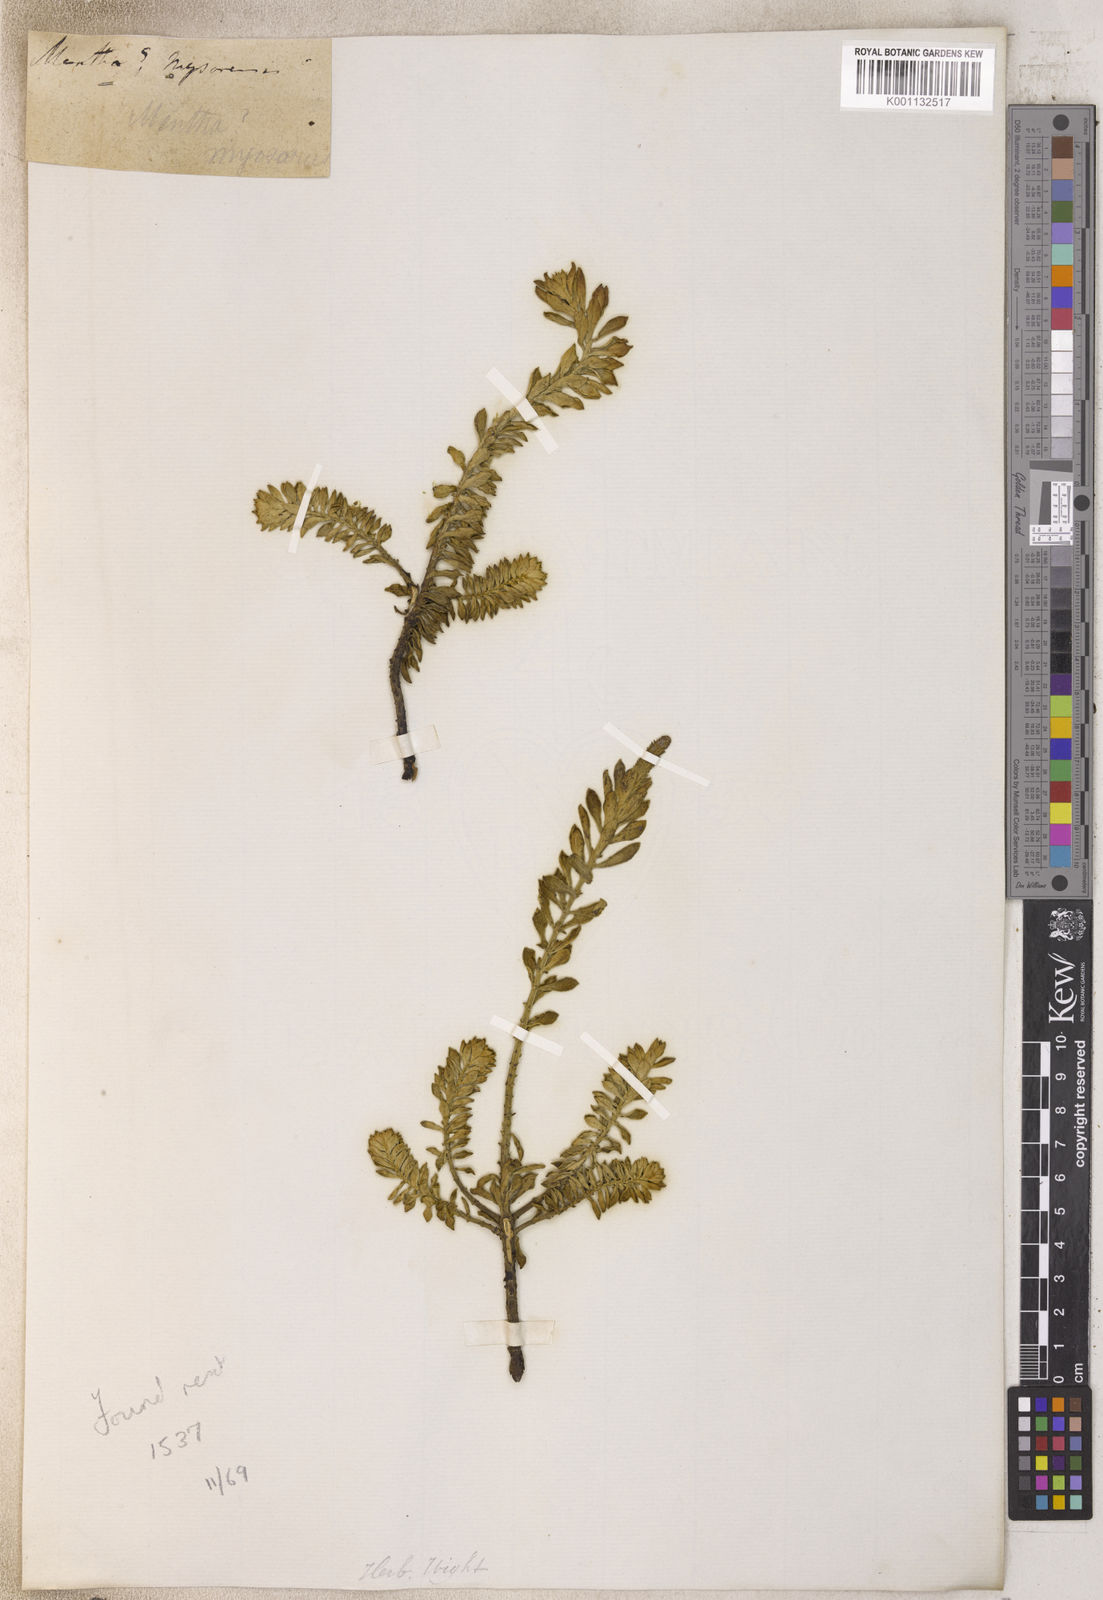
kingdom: Plantae
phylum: Tracheophyta
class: Magnoliopsida
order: Lamiales
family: Lamiaceae
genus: Mentha
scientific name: Mentha
